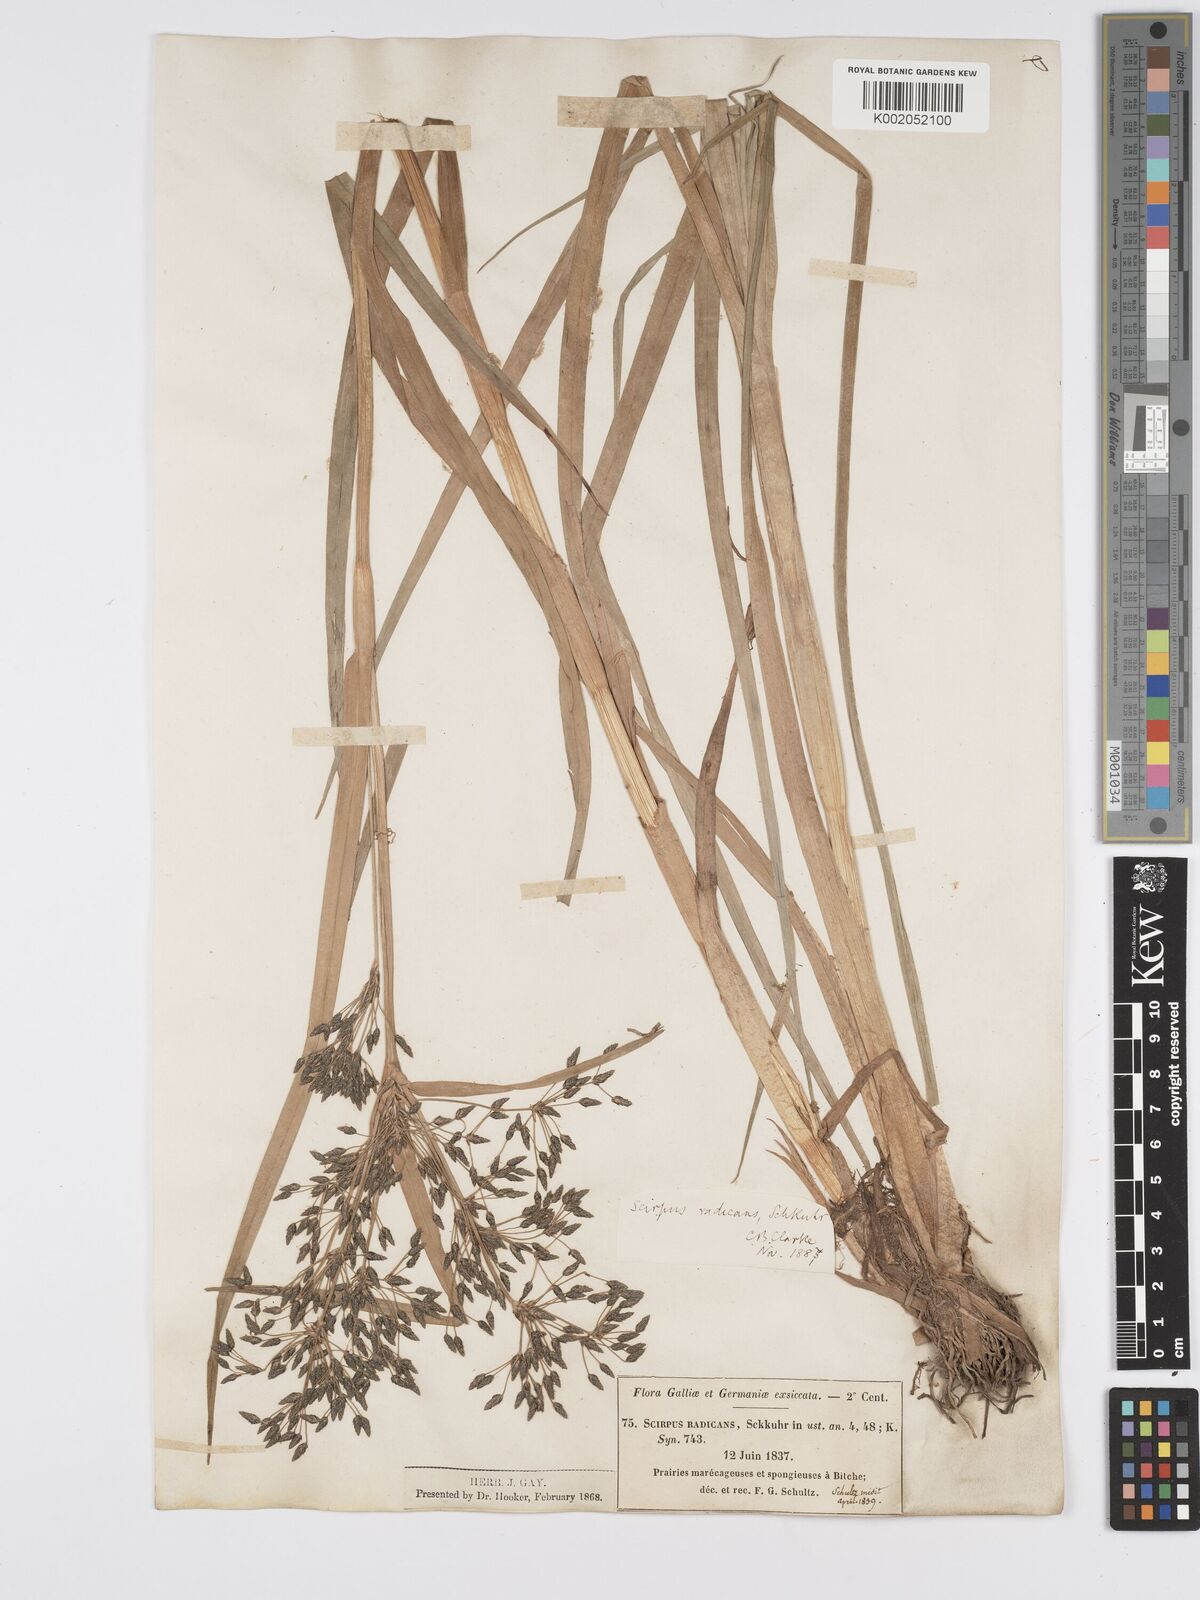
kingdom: Plantae
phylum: Tracheophyta
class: Liliopsida
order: Poales
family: Cyperaceae
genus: Scirpus
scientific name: Scirpus radicans
